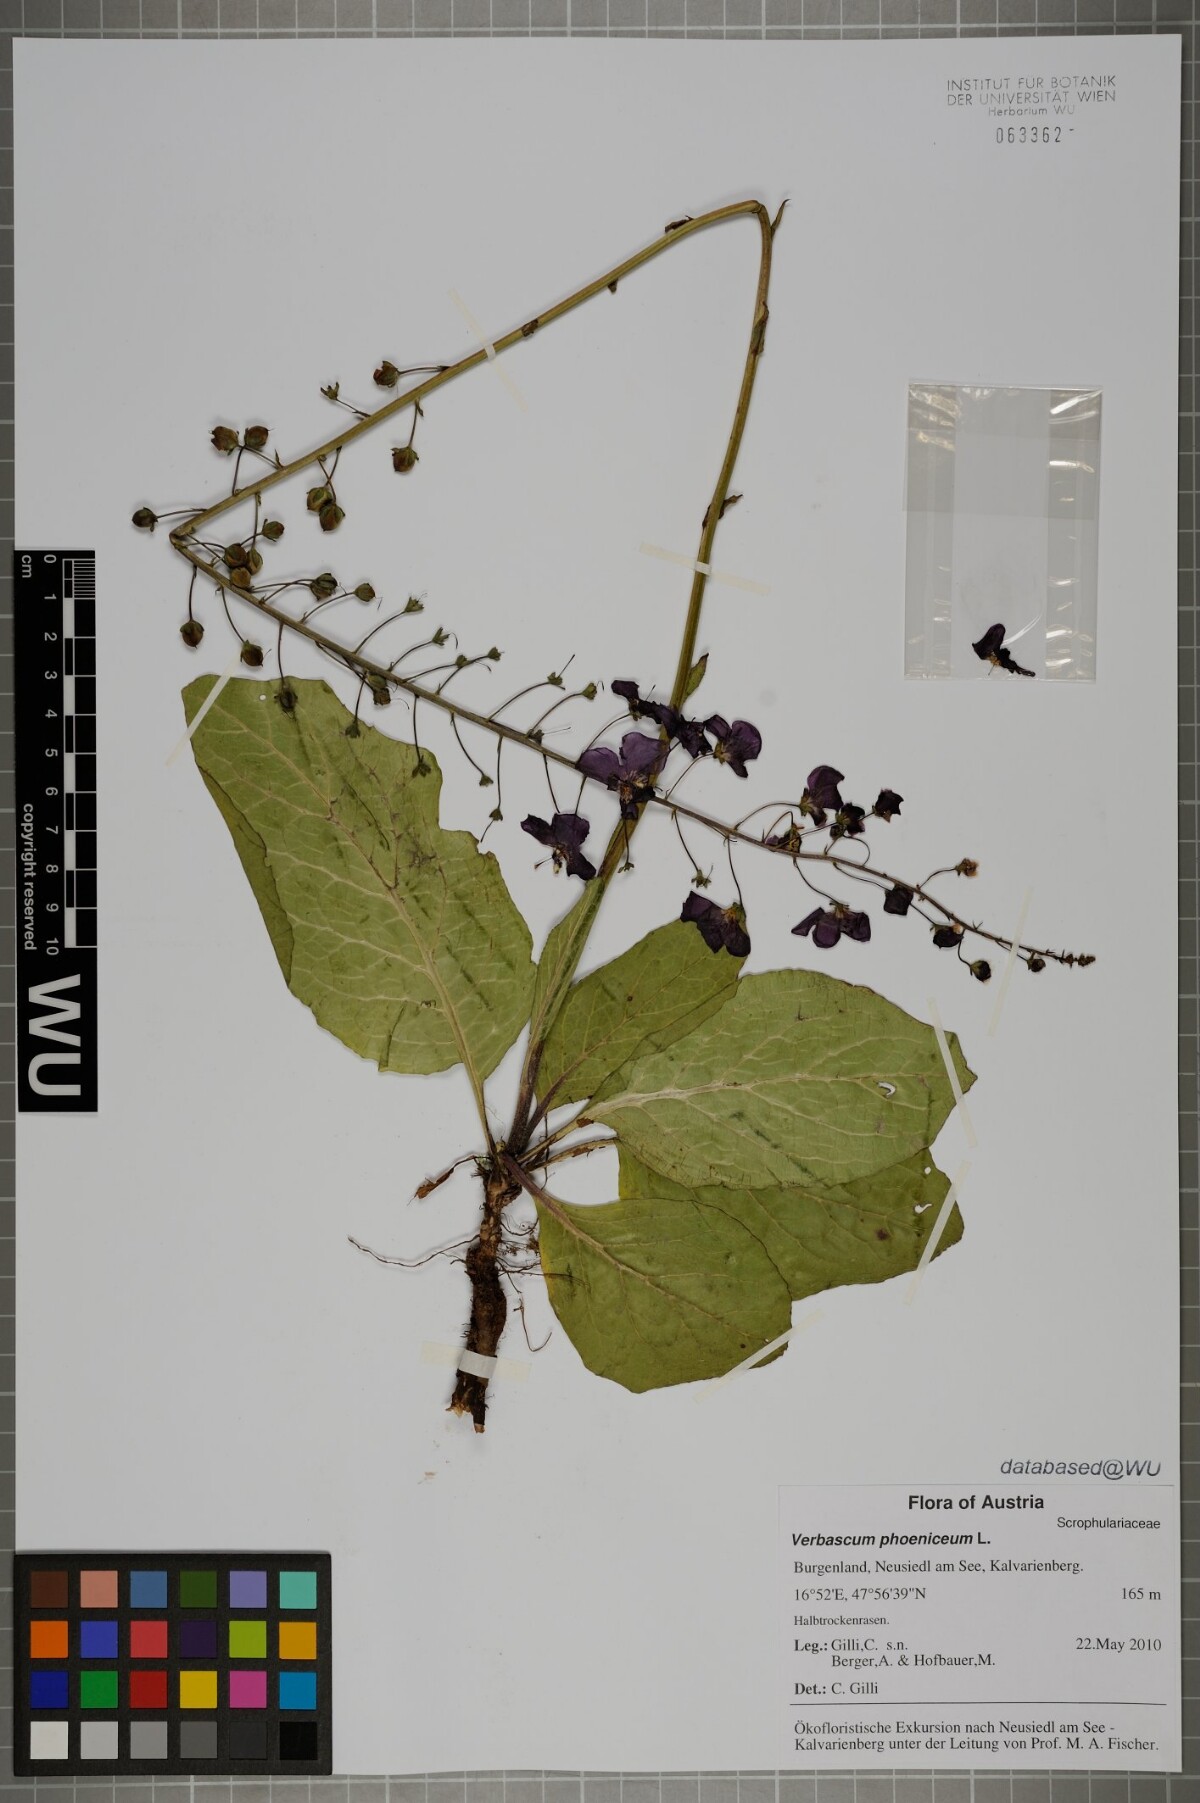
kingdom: Plantae
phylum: Tracheophyta
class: Magnoliopsida
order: Lamiales
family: Scrophulariaceae
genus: Verbascum
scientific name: Verbascum phoeniceum
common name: Purple mullein
